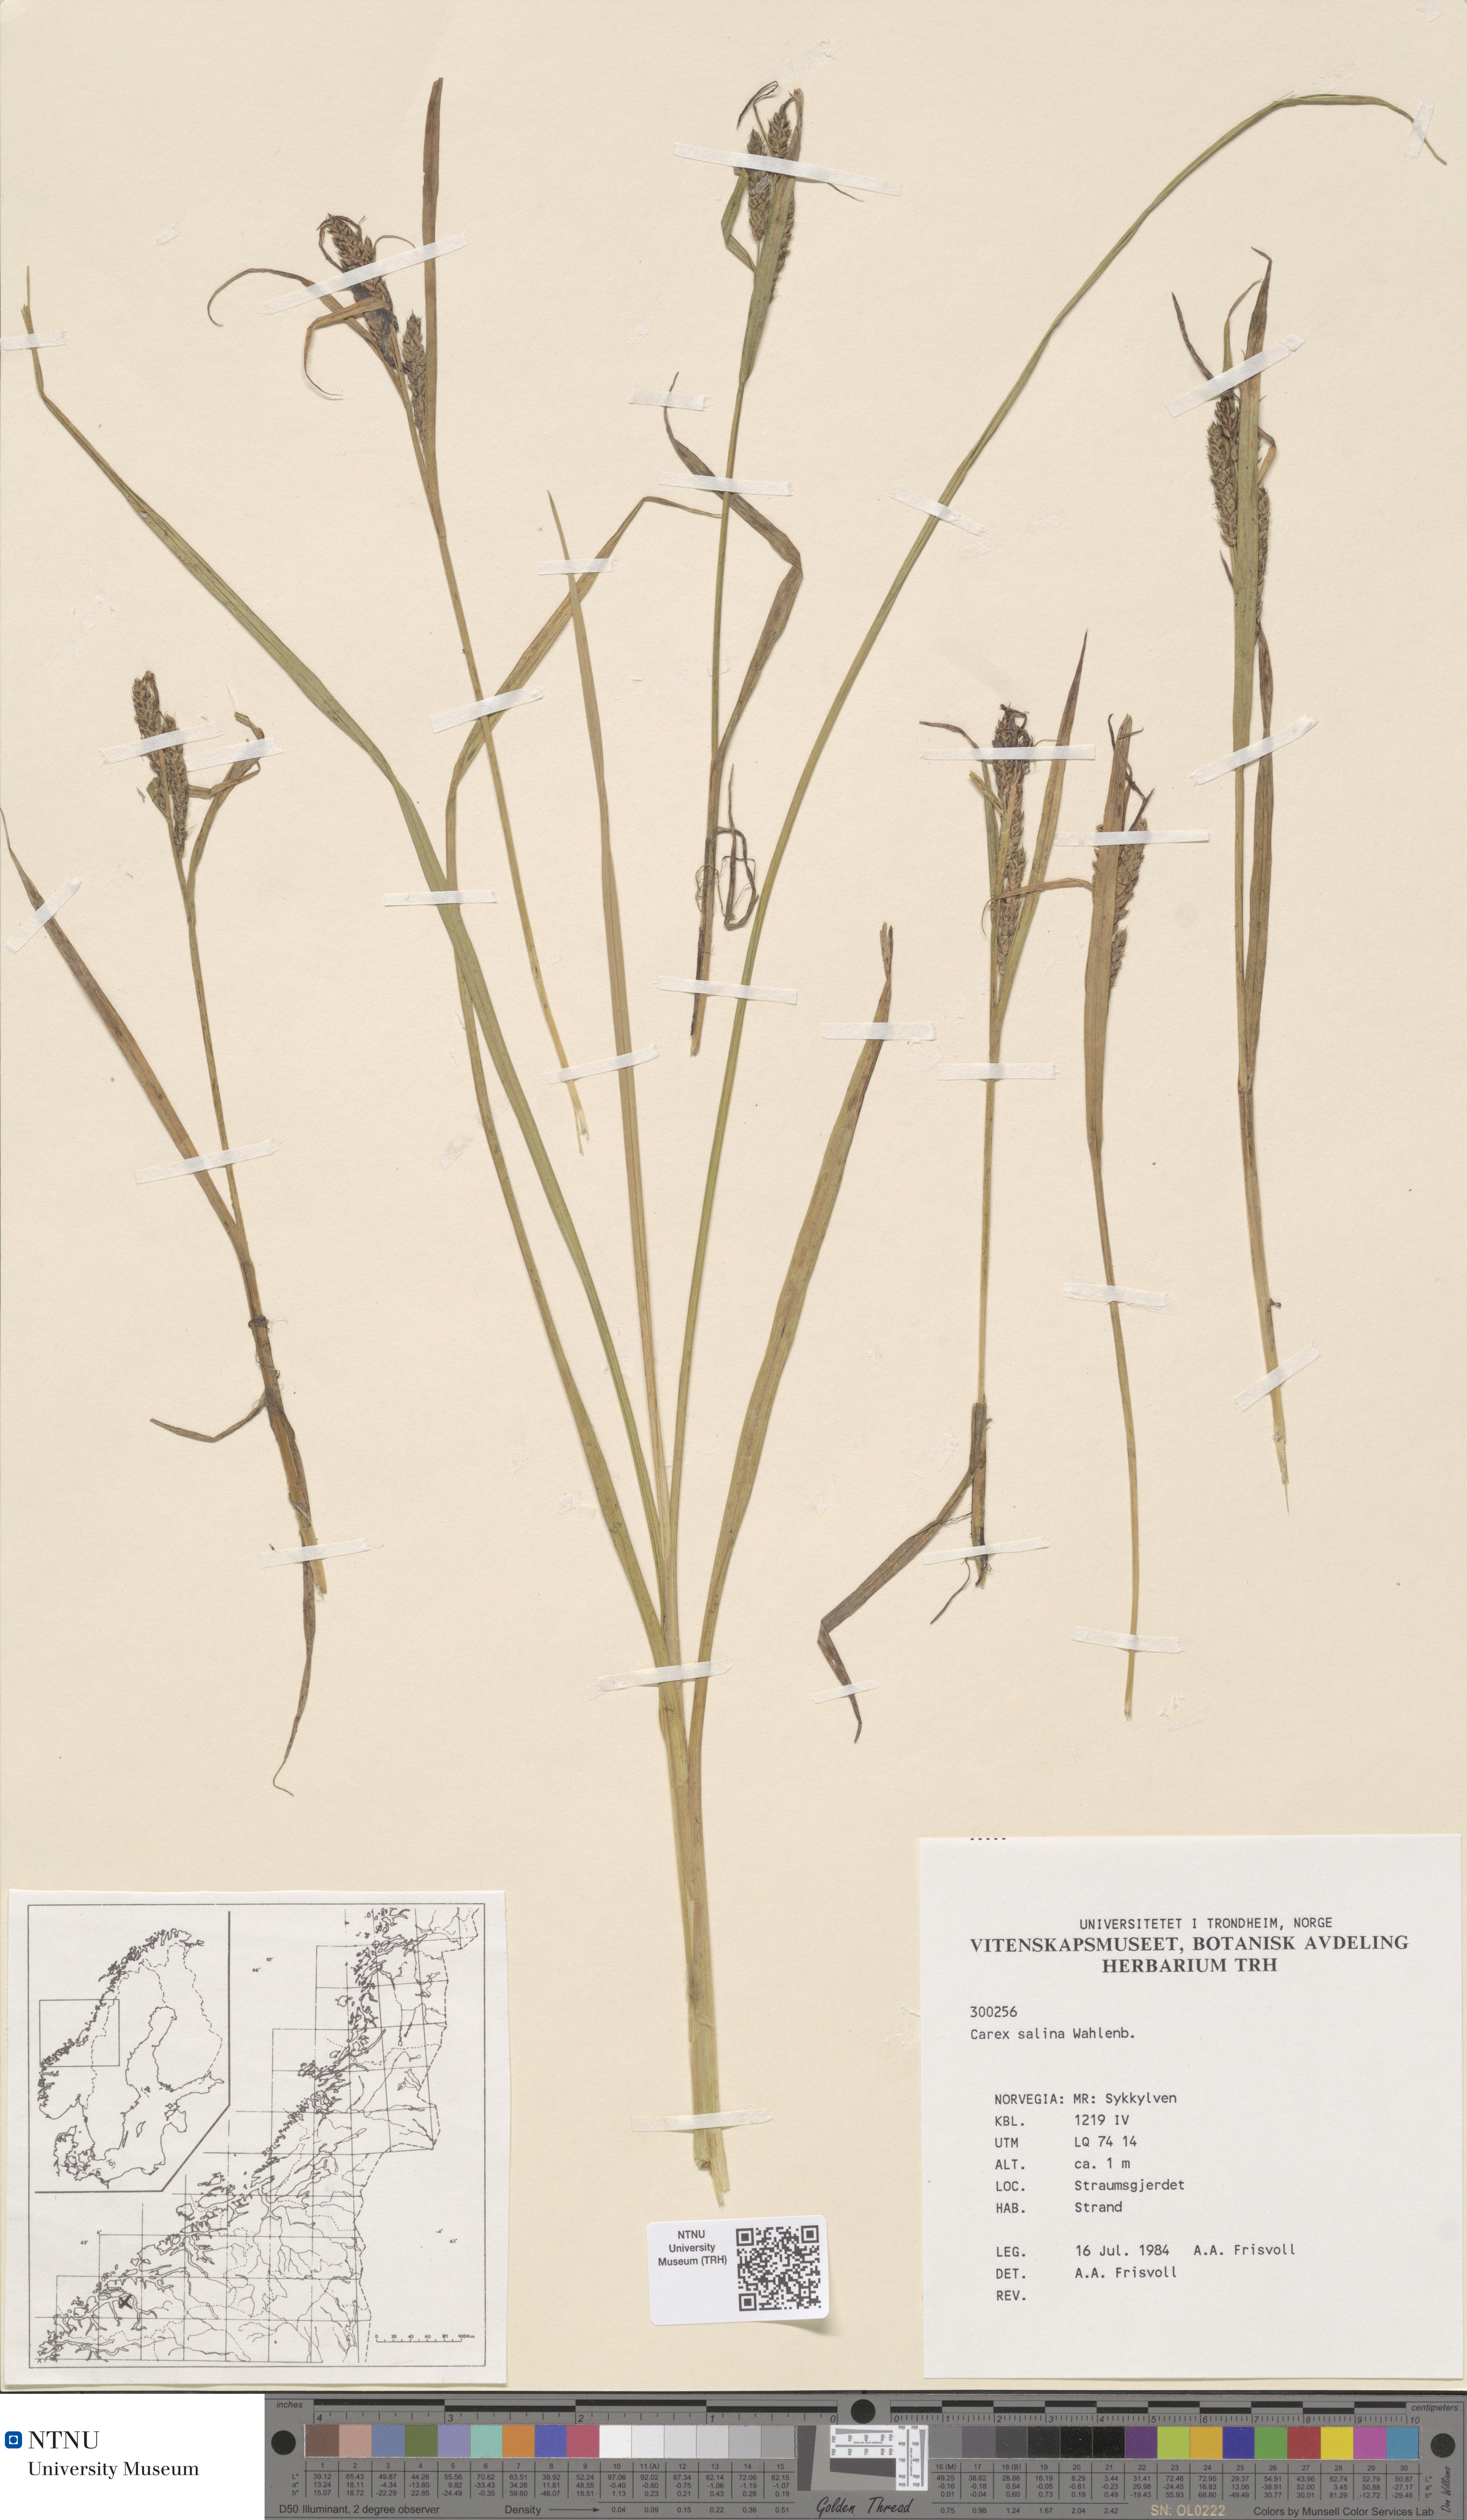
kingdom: Plantae
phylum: Tracheophyta
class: Liliopsida
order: Poales
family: Cyperaceae
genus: Carex
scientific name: Carex salina
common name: Saltmarsh sedge
